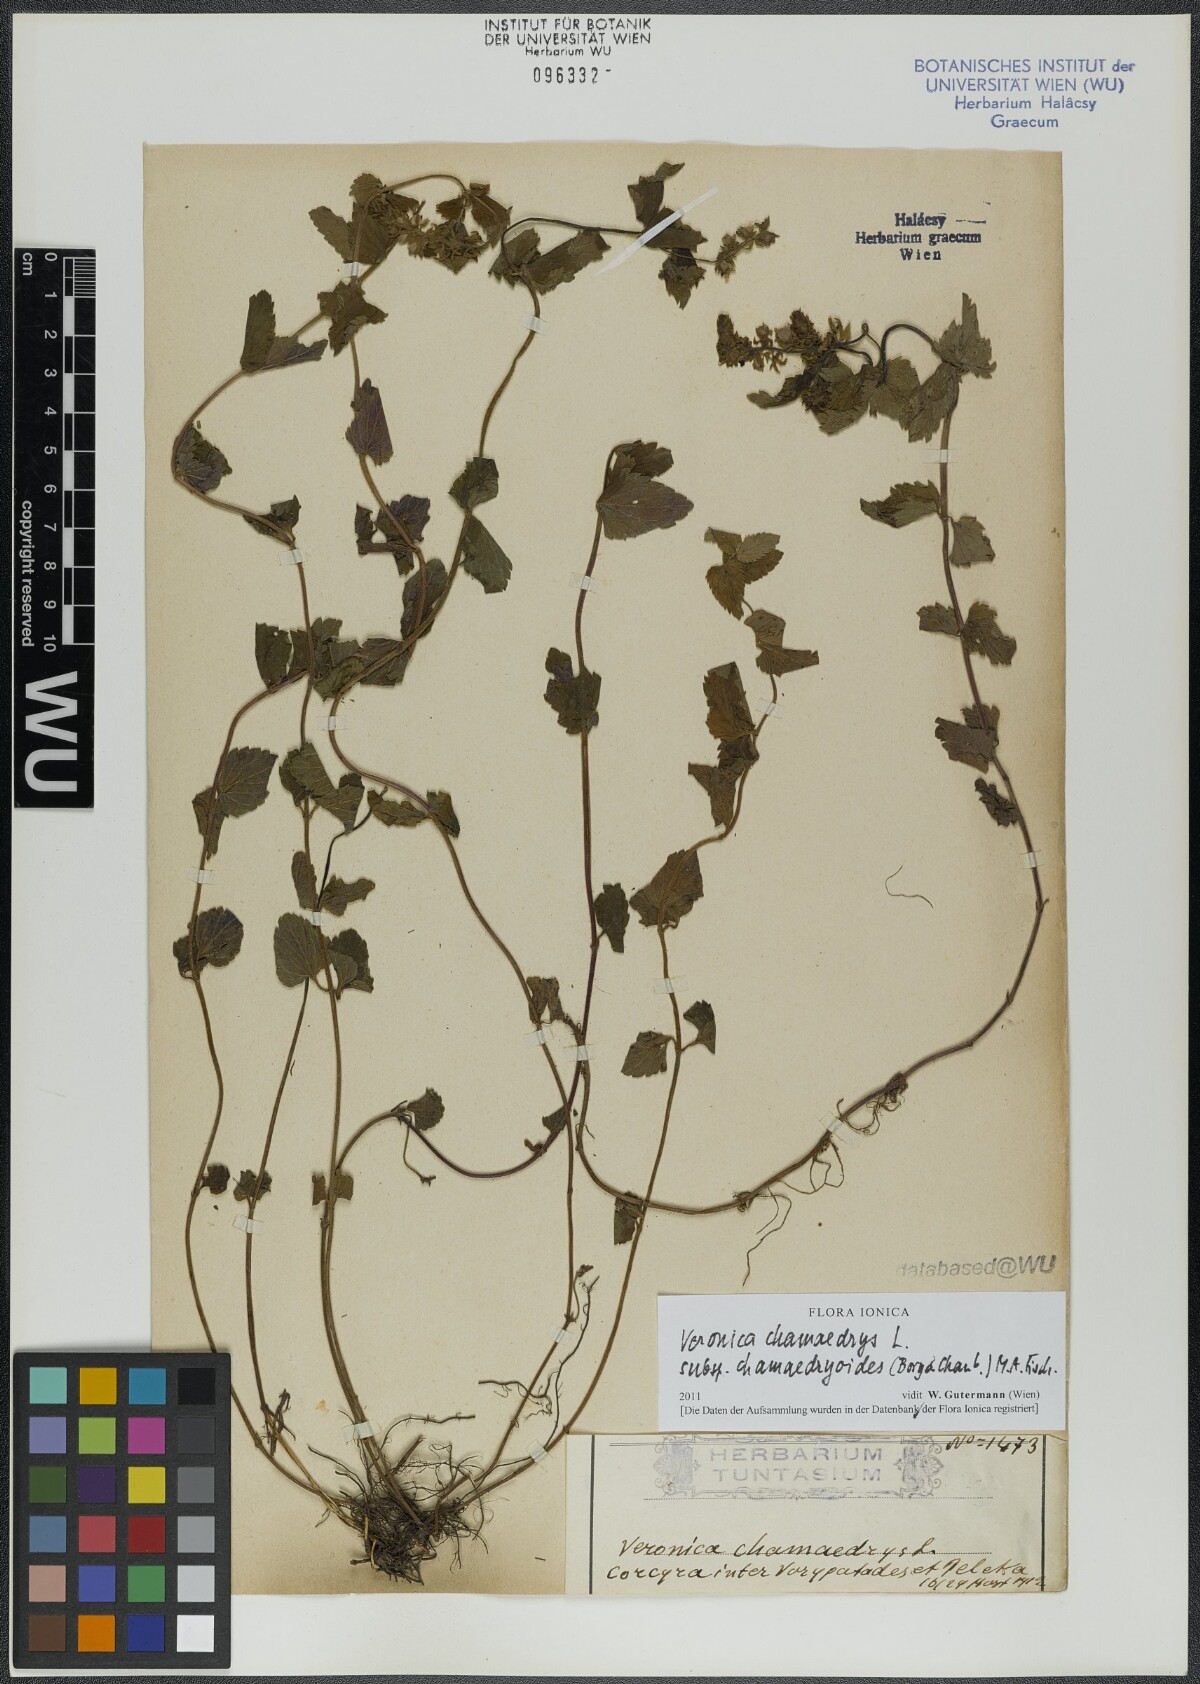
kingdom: Plantae
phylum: Tracheophyta
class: Magnoliopsida
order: Lamiales
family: Plantaginaceae
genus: Veronica
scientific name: Veronica chamaedrys
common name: Germander speedwell
